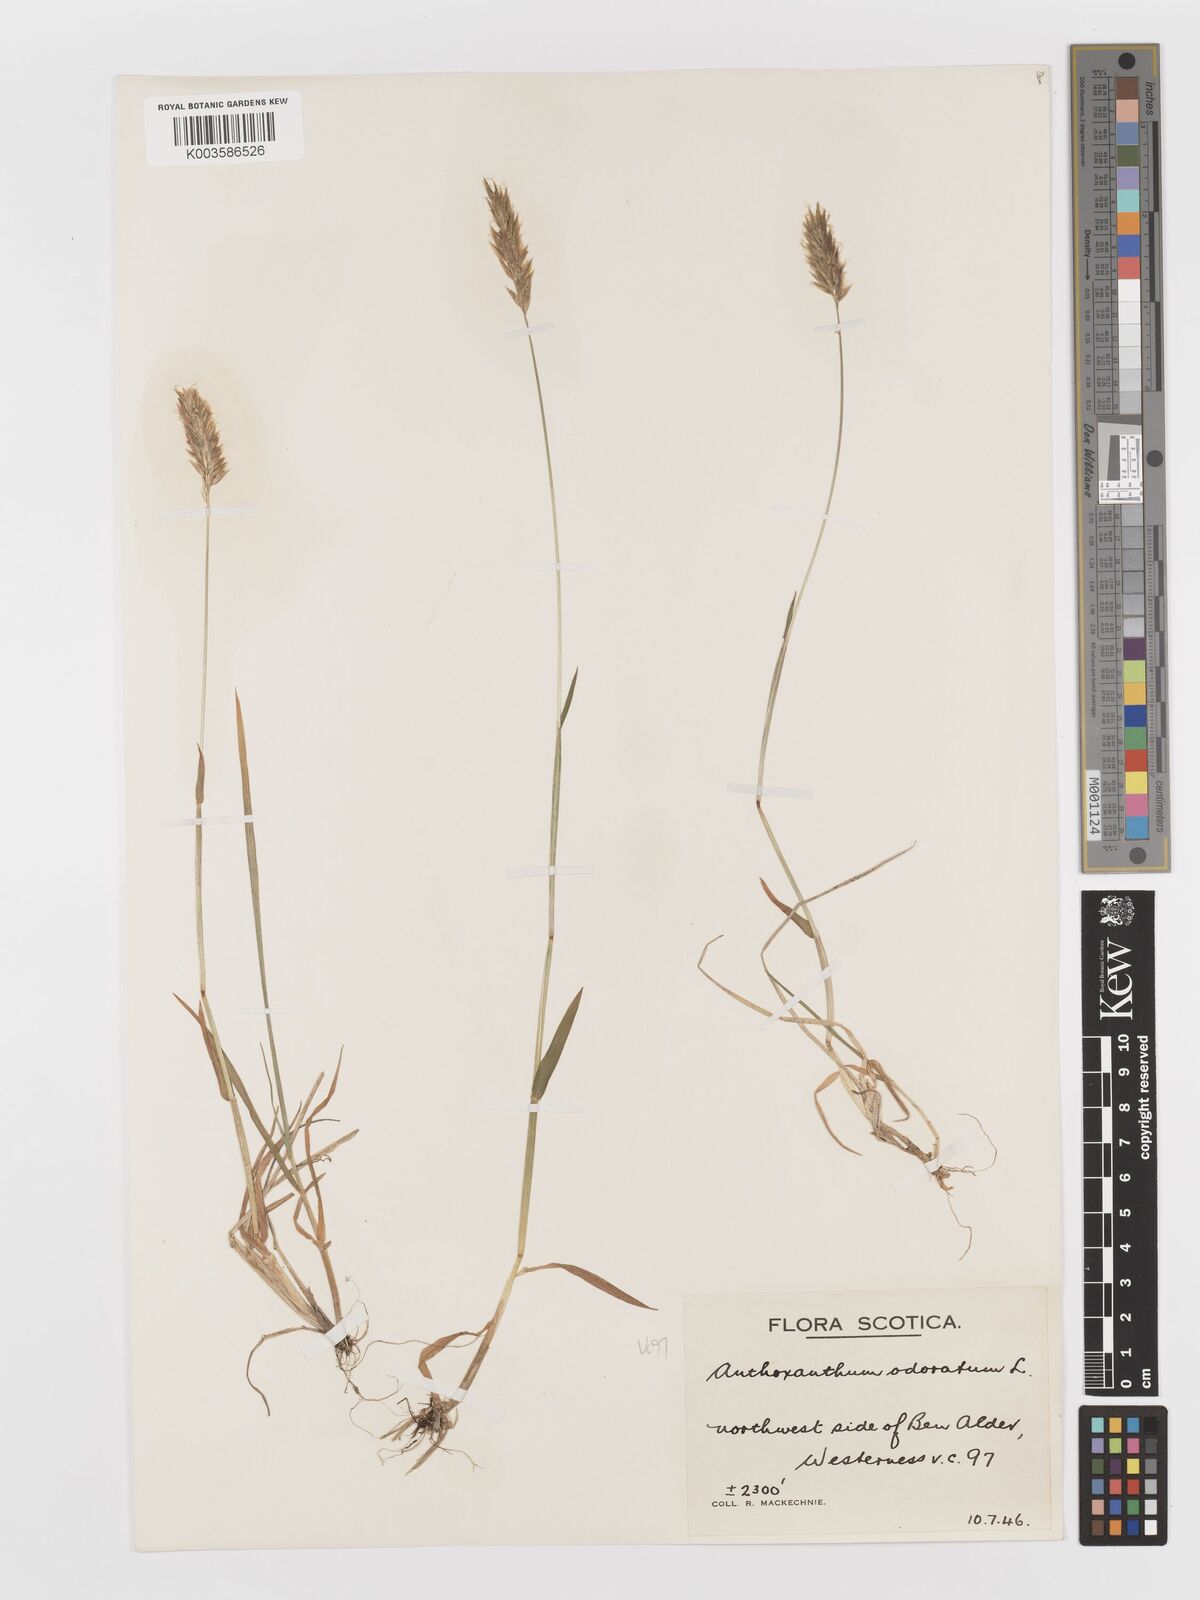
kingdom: Plantae
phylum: Tracheophyta
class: Liliopsida
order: Poales
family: Poaceae
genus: Anthoxanthum
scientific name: Anthoxanthum odoratum
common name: Sweet vernalgrass
